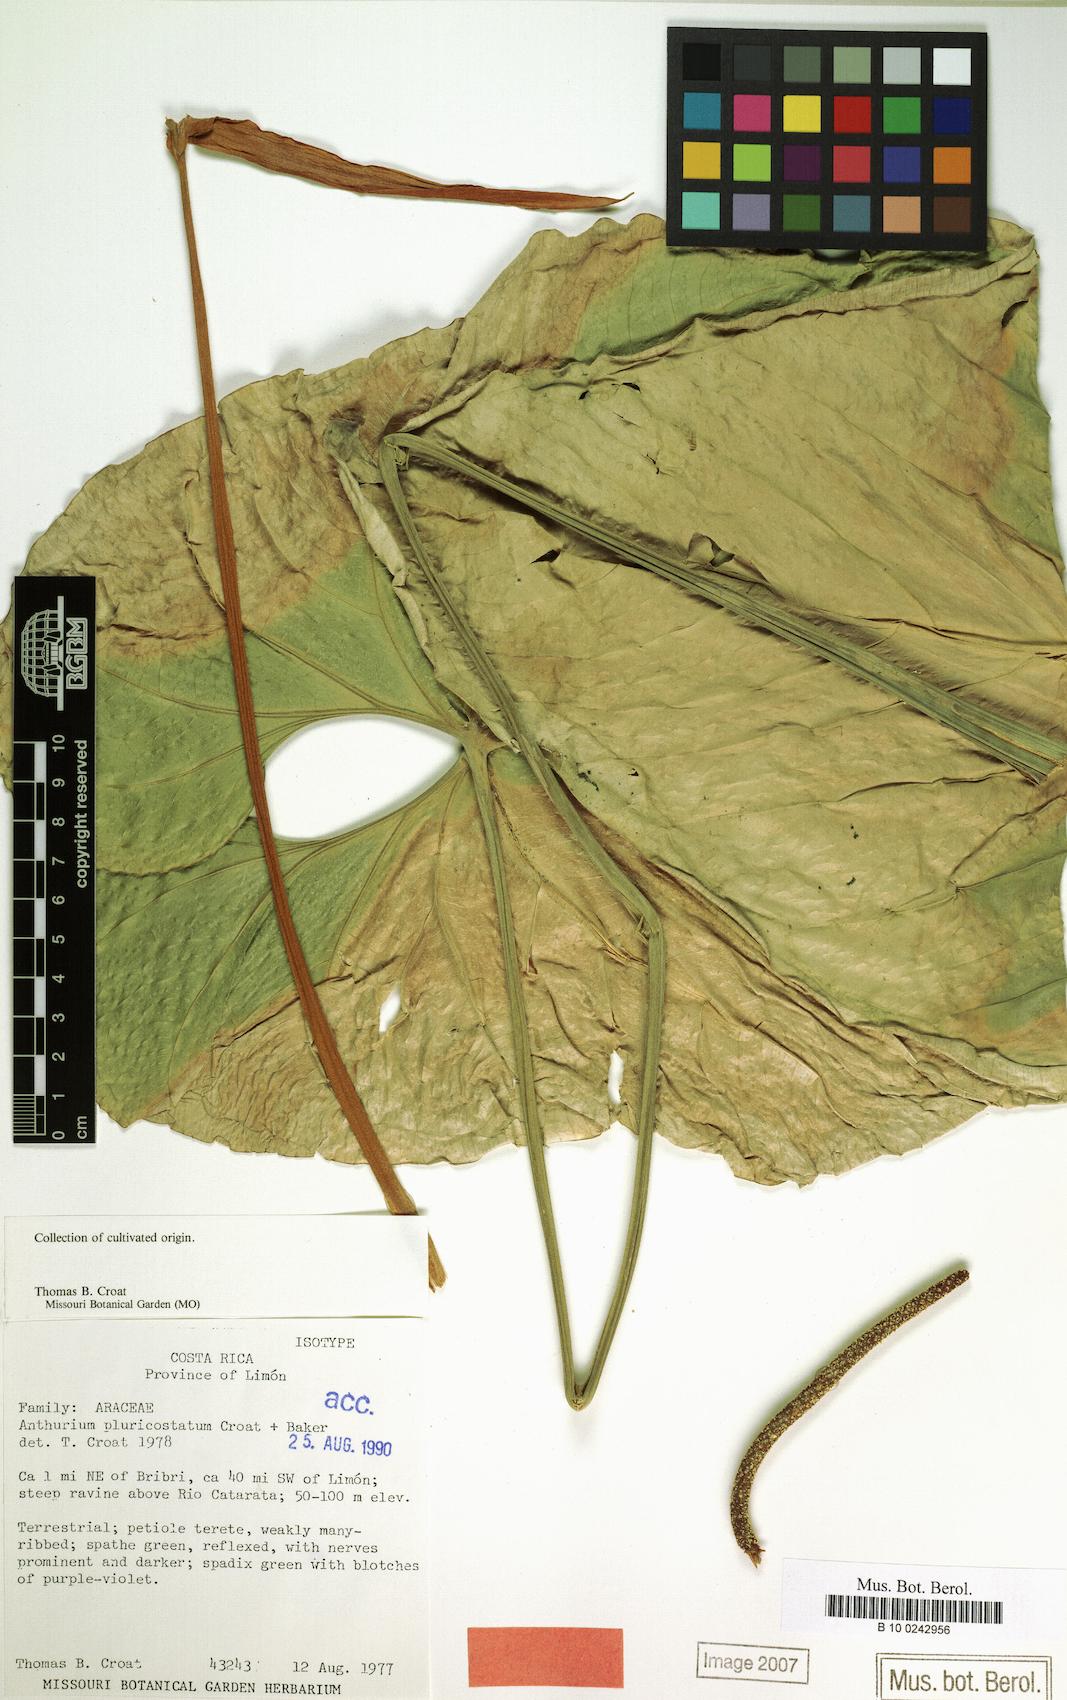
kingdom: Plantae
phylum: Tracheophyta
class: Liliopsida
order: Alismatales
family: Araceae
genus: Anthurium
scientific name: Anthurium ochranthum
